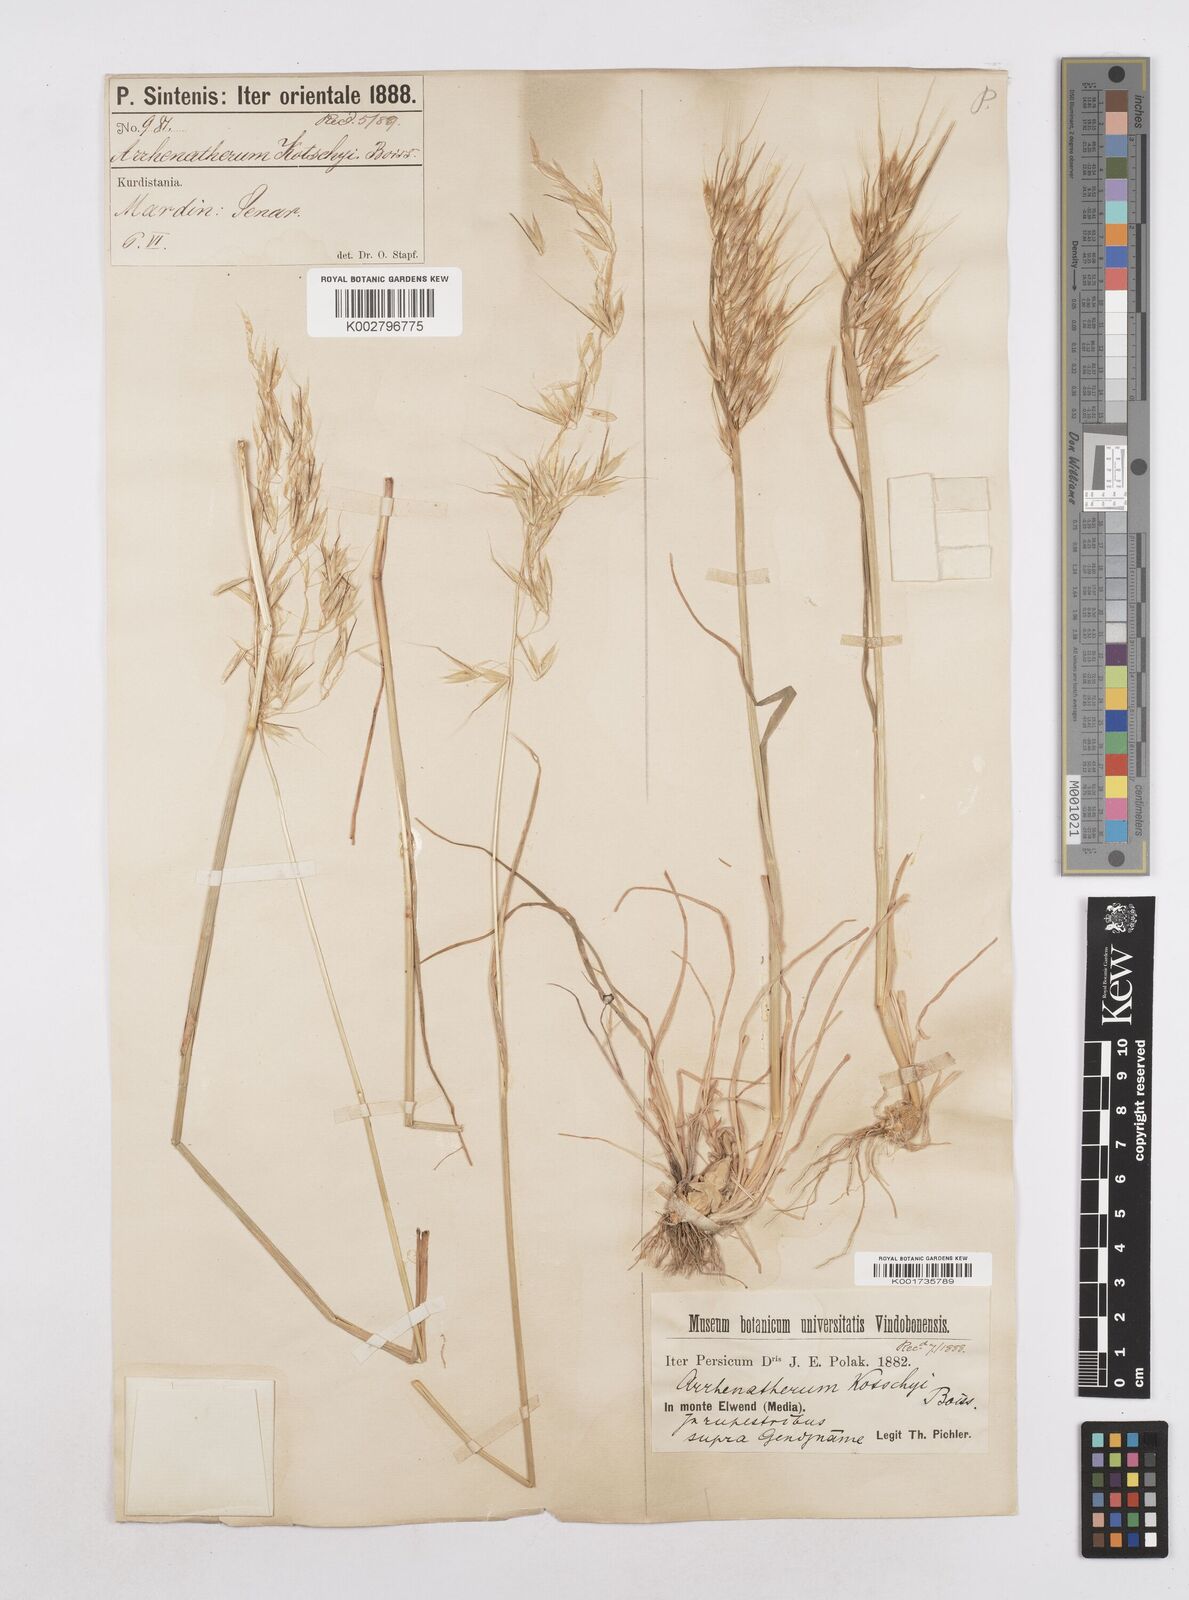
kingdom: Plantae
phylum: Tracheophyta
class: Liliopsida
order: Poales
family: Poaceae
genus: Arrhenatherum
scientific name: Arrhenatherum kotschyi
